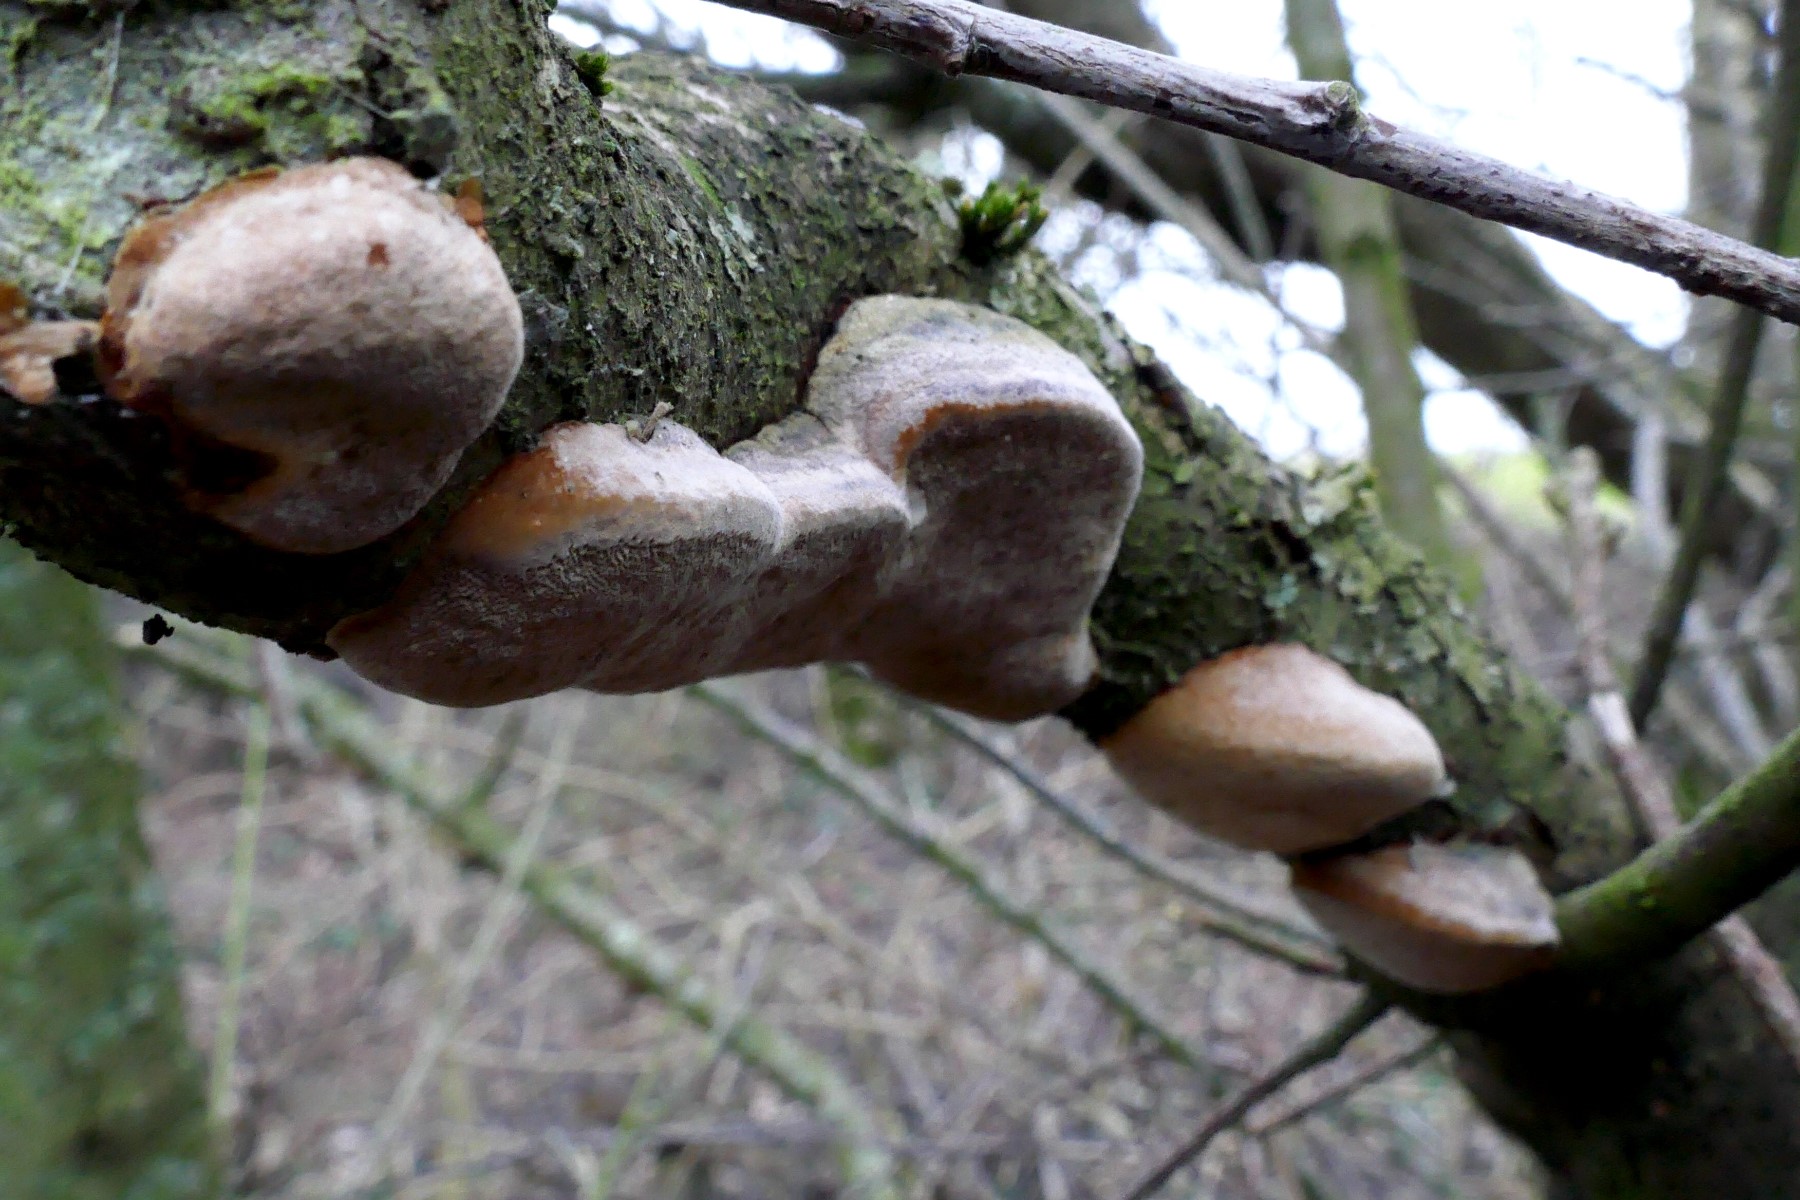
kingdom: Fungi
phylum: Basidiomycota
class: Agaricomycetes
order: Hymenochaetales
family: Hymenochaetaceae
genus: Phellinus
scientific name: Phellinus pomaceus
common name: blomme-ildporesvamp
